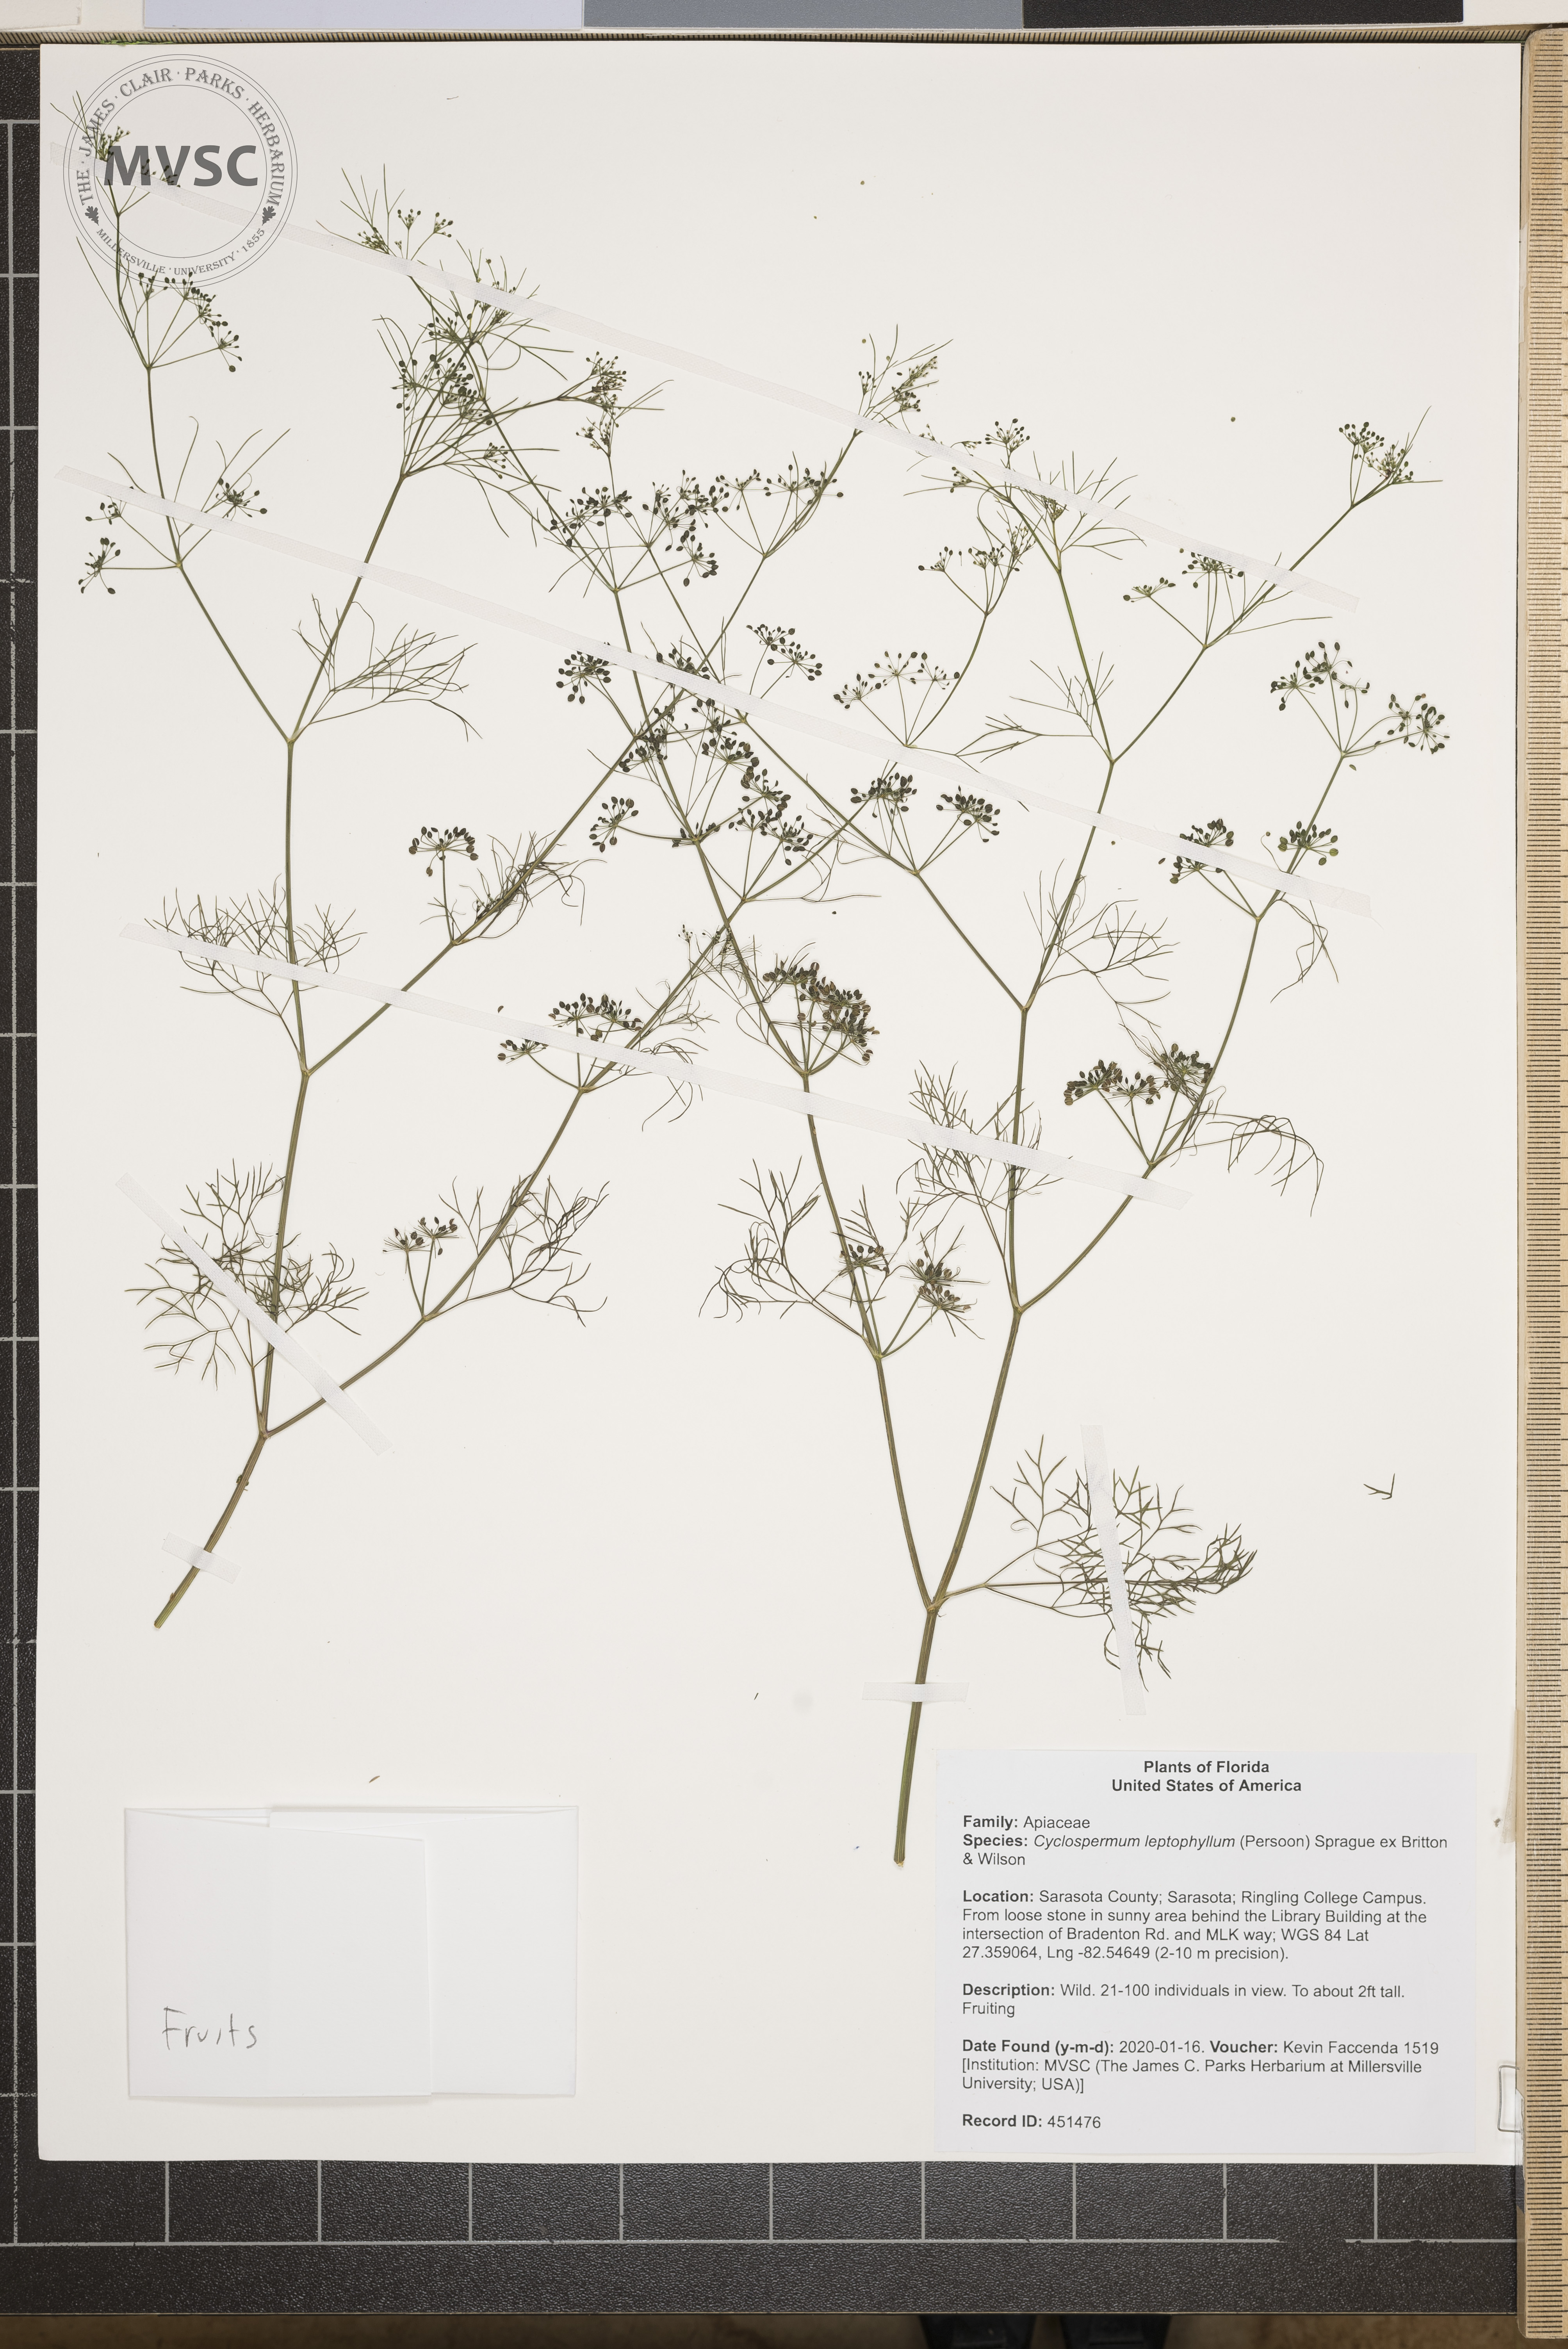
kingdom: Plantae
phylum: Tracheophyta
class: Magnoliopsida
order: Apiales
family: Apiaceae
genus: Cyclospermum
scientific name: Cyclospermum leptophyllum
